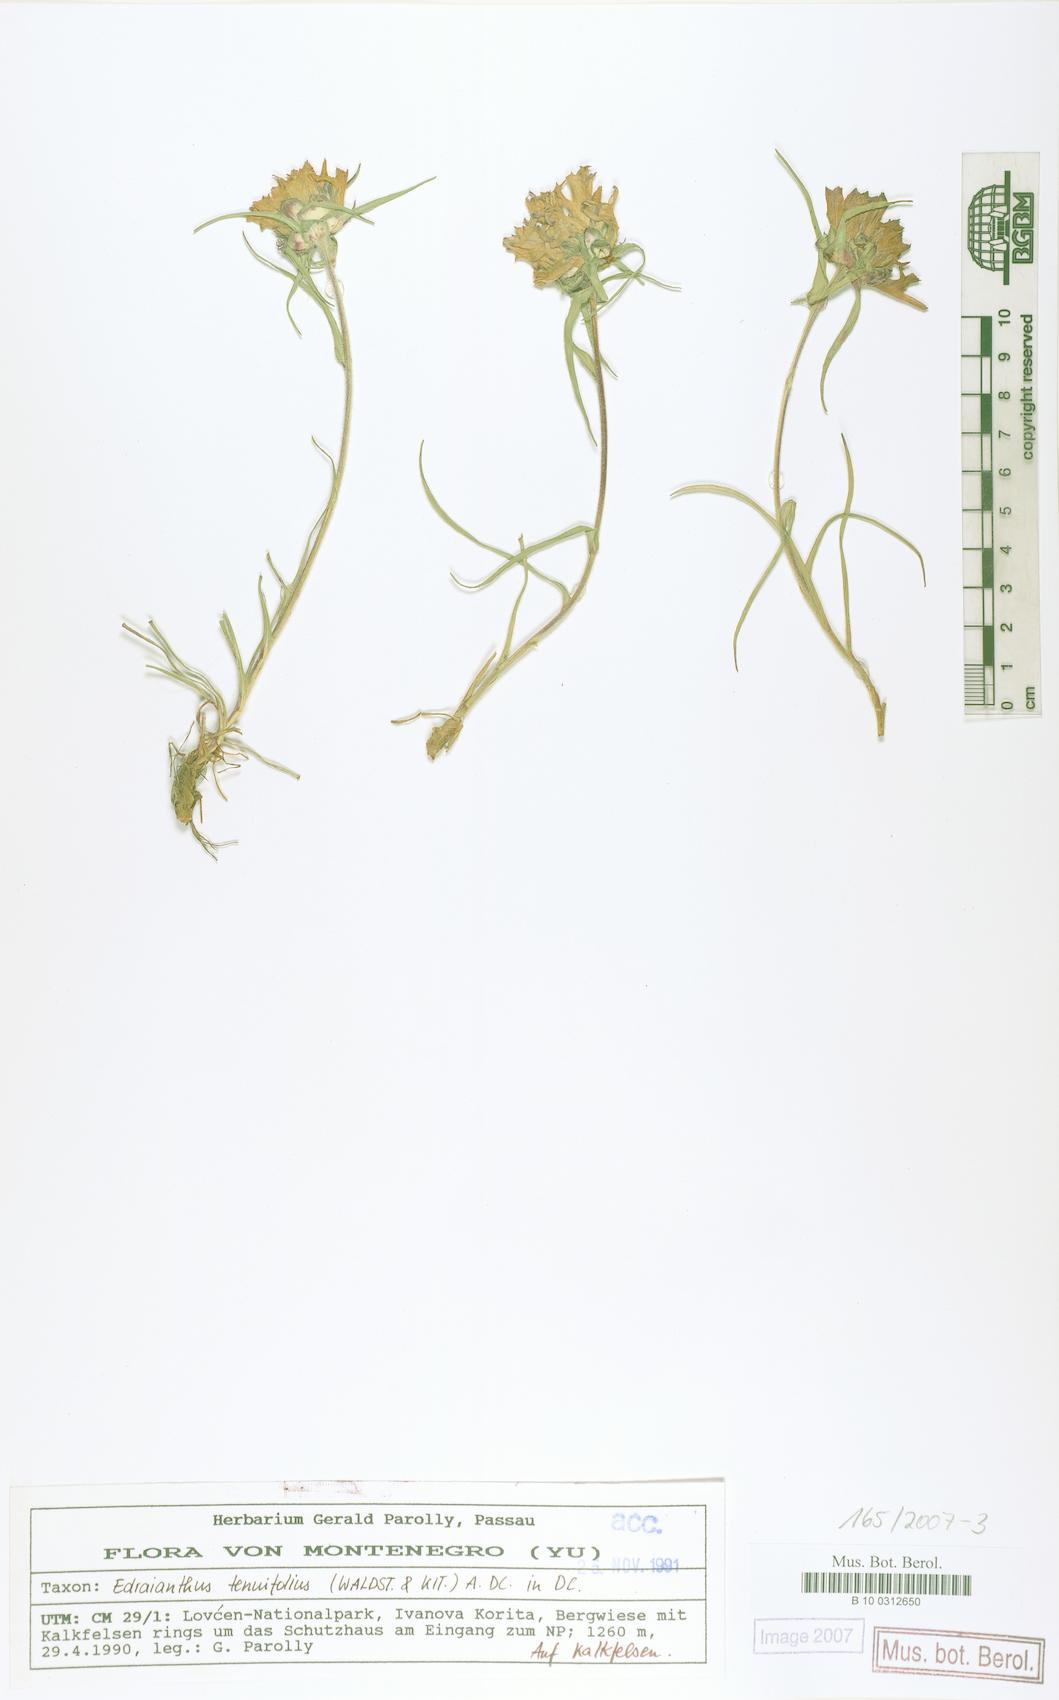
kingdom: Plantae
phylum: Tracheophyta
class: Magnoliopsida
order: Asterales
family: Campanulaceae
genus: Edraianthus
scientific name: Edraianthus tenuifolius
